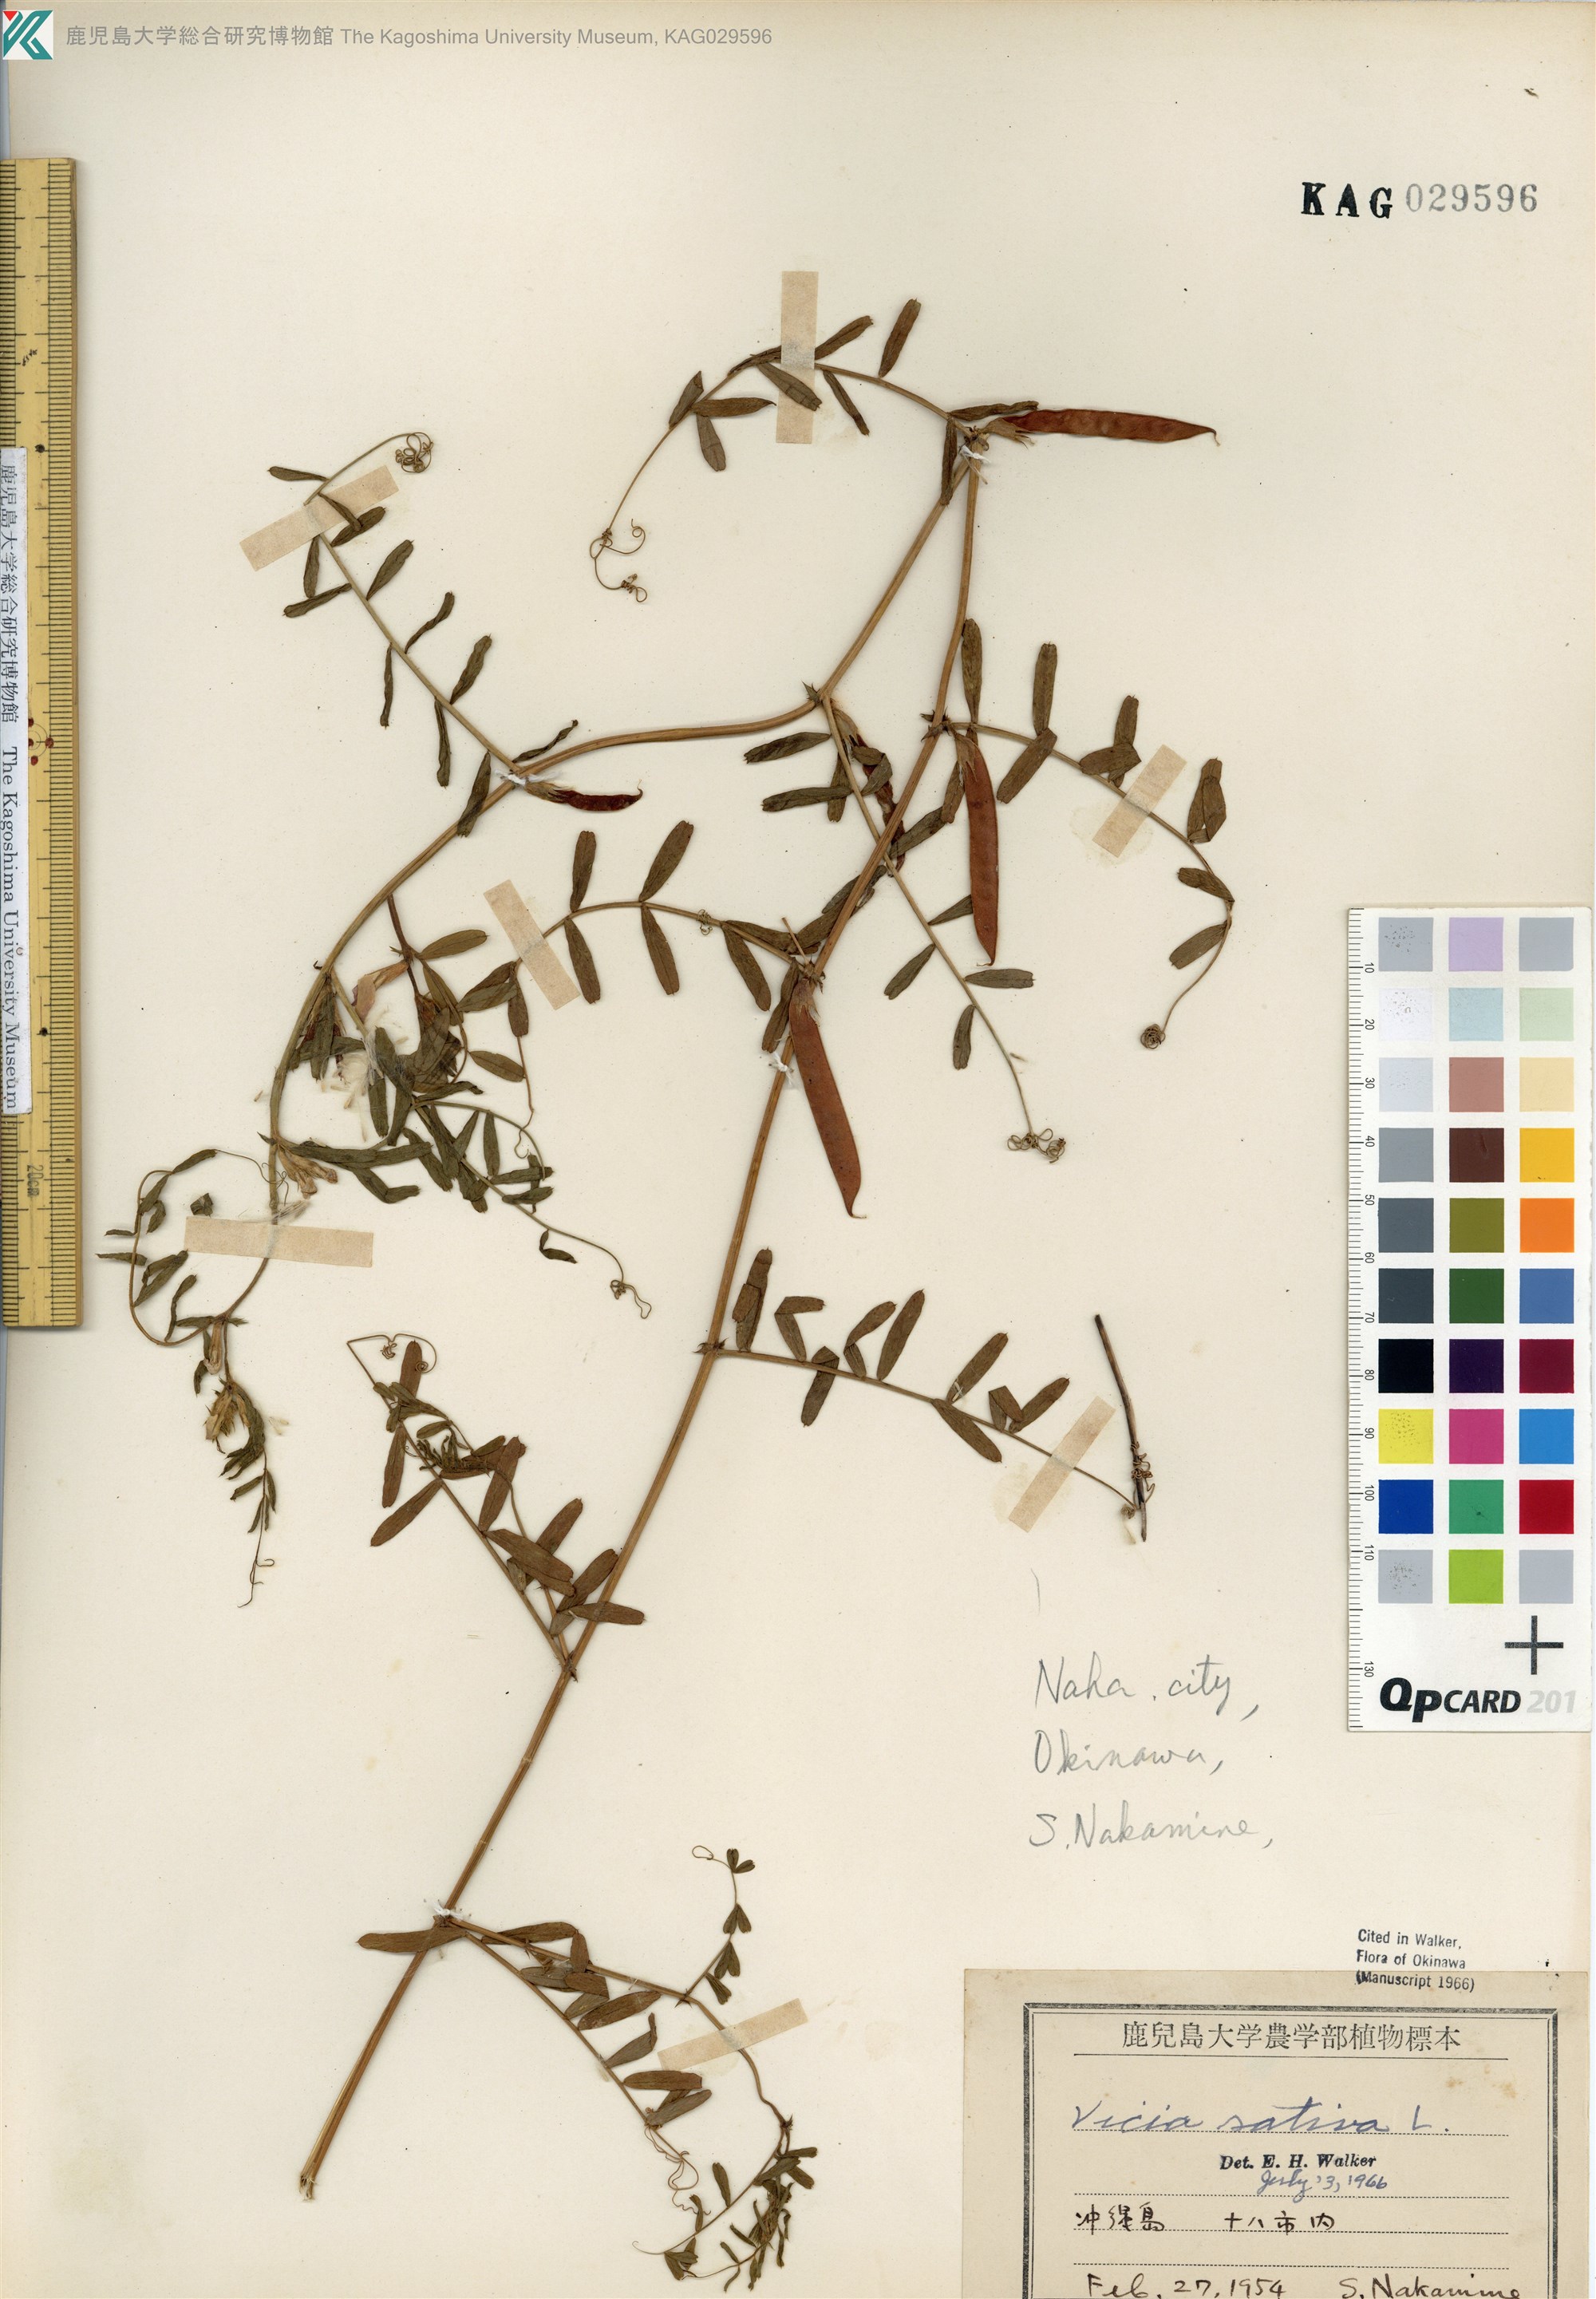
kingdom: Plantae
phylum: Tracheophyta
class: Magnoliopsida
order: Fabales
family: Fabaceae
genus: Vicia
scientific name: Vicia sativa
